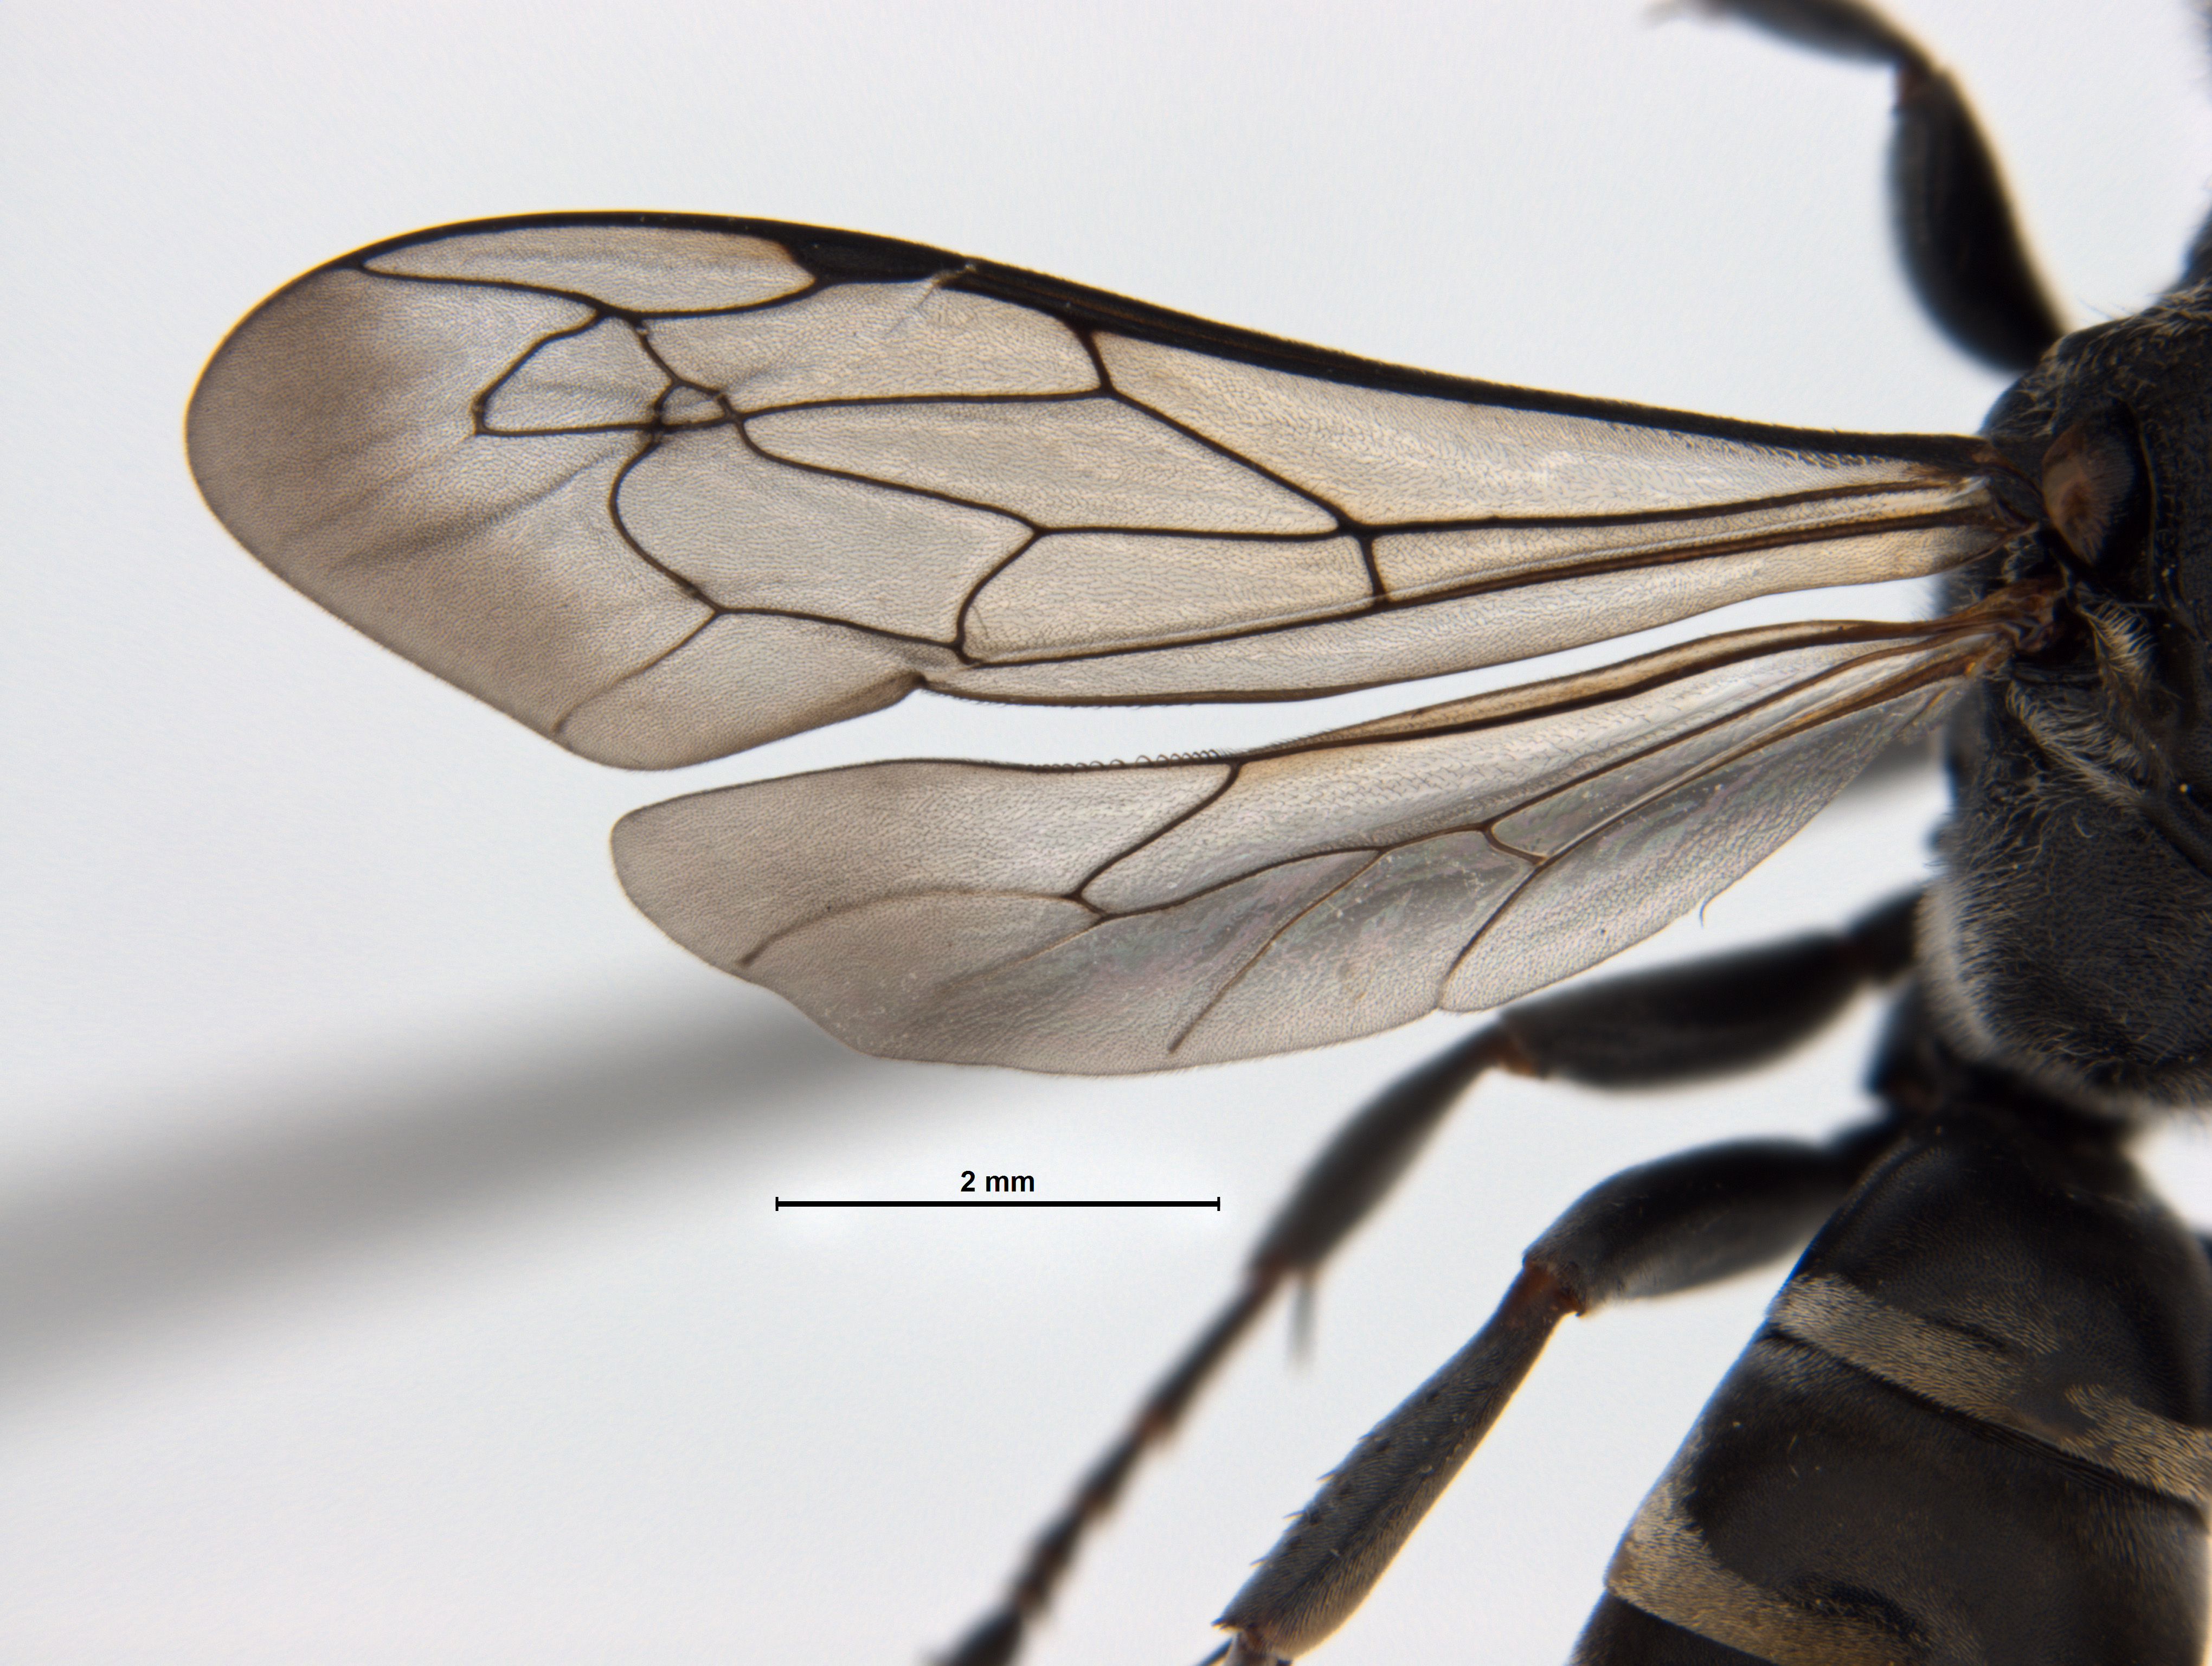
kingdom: Animalia
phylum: Arthropoda
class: Insecta
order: Hymenoptera
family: Crabronidae
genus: Pison
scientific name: Pison marginatum
